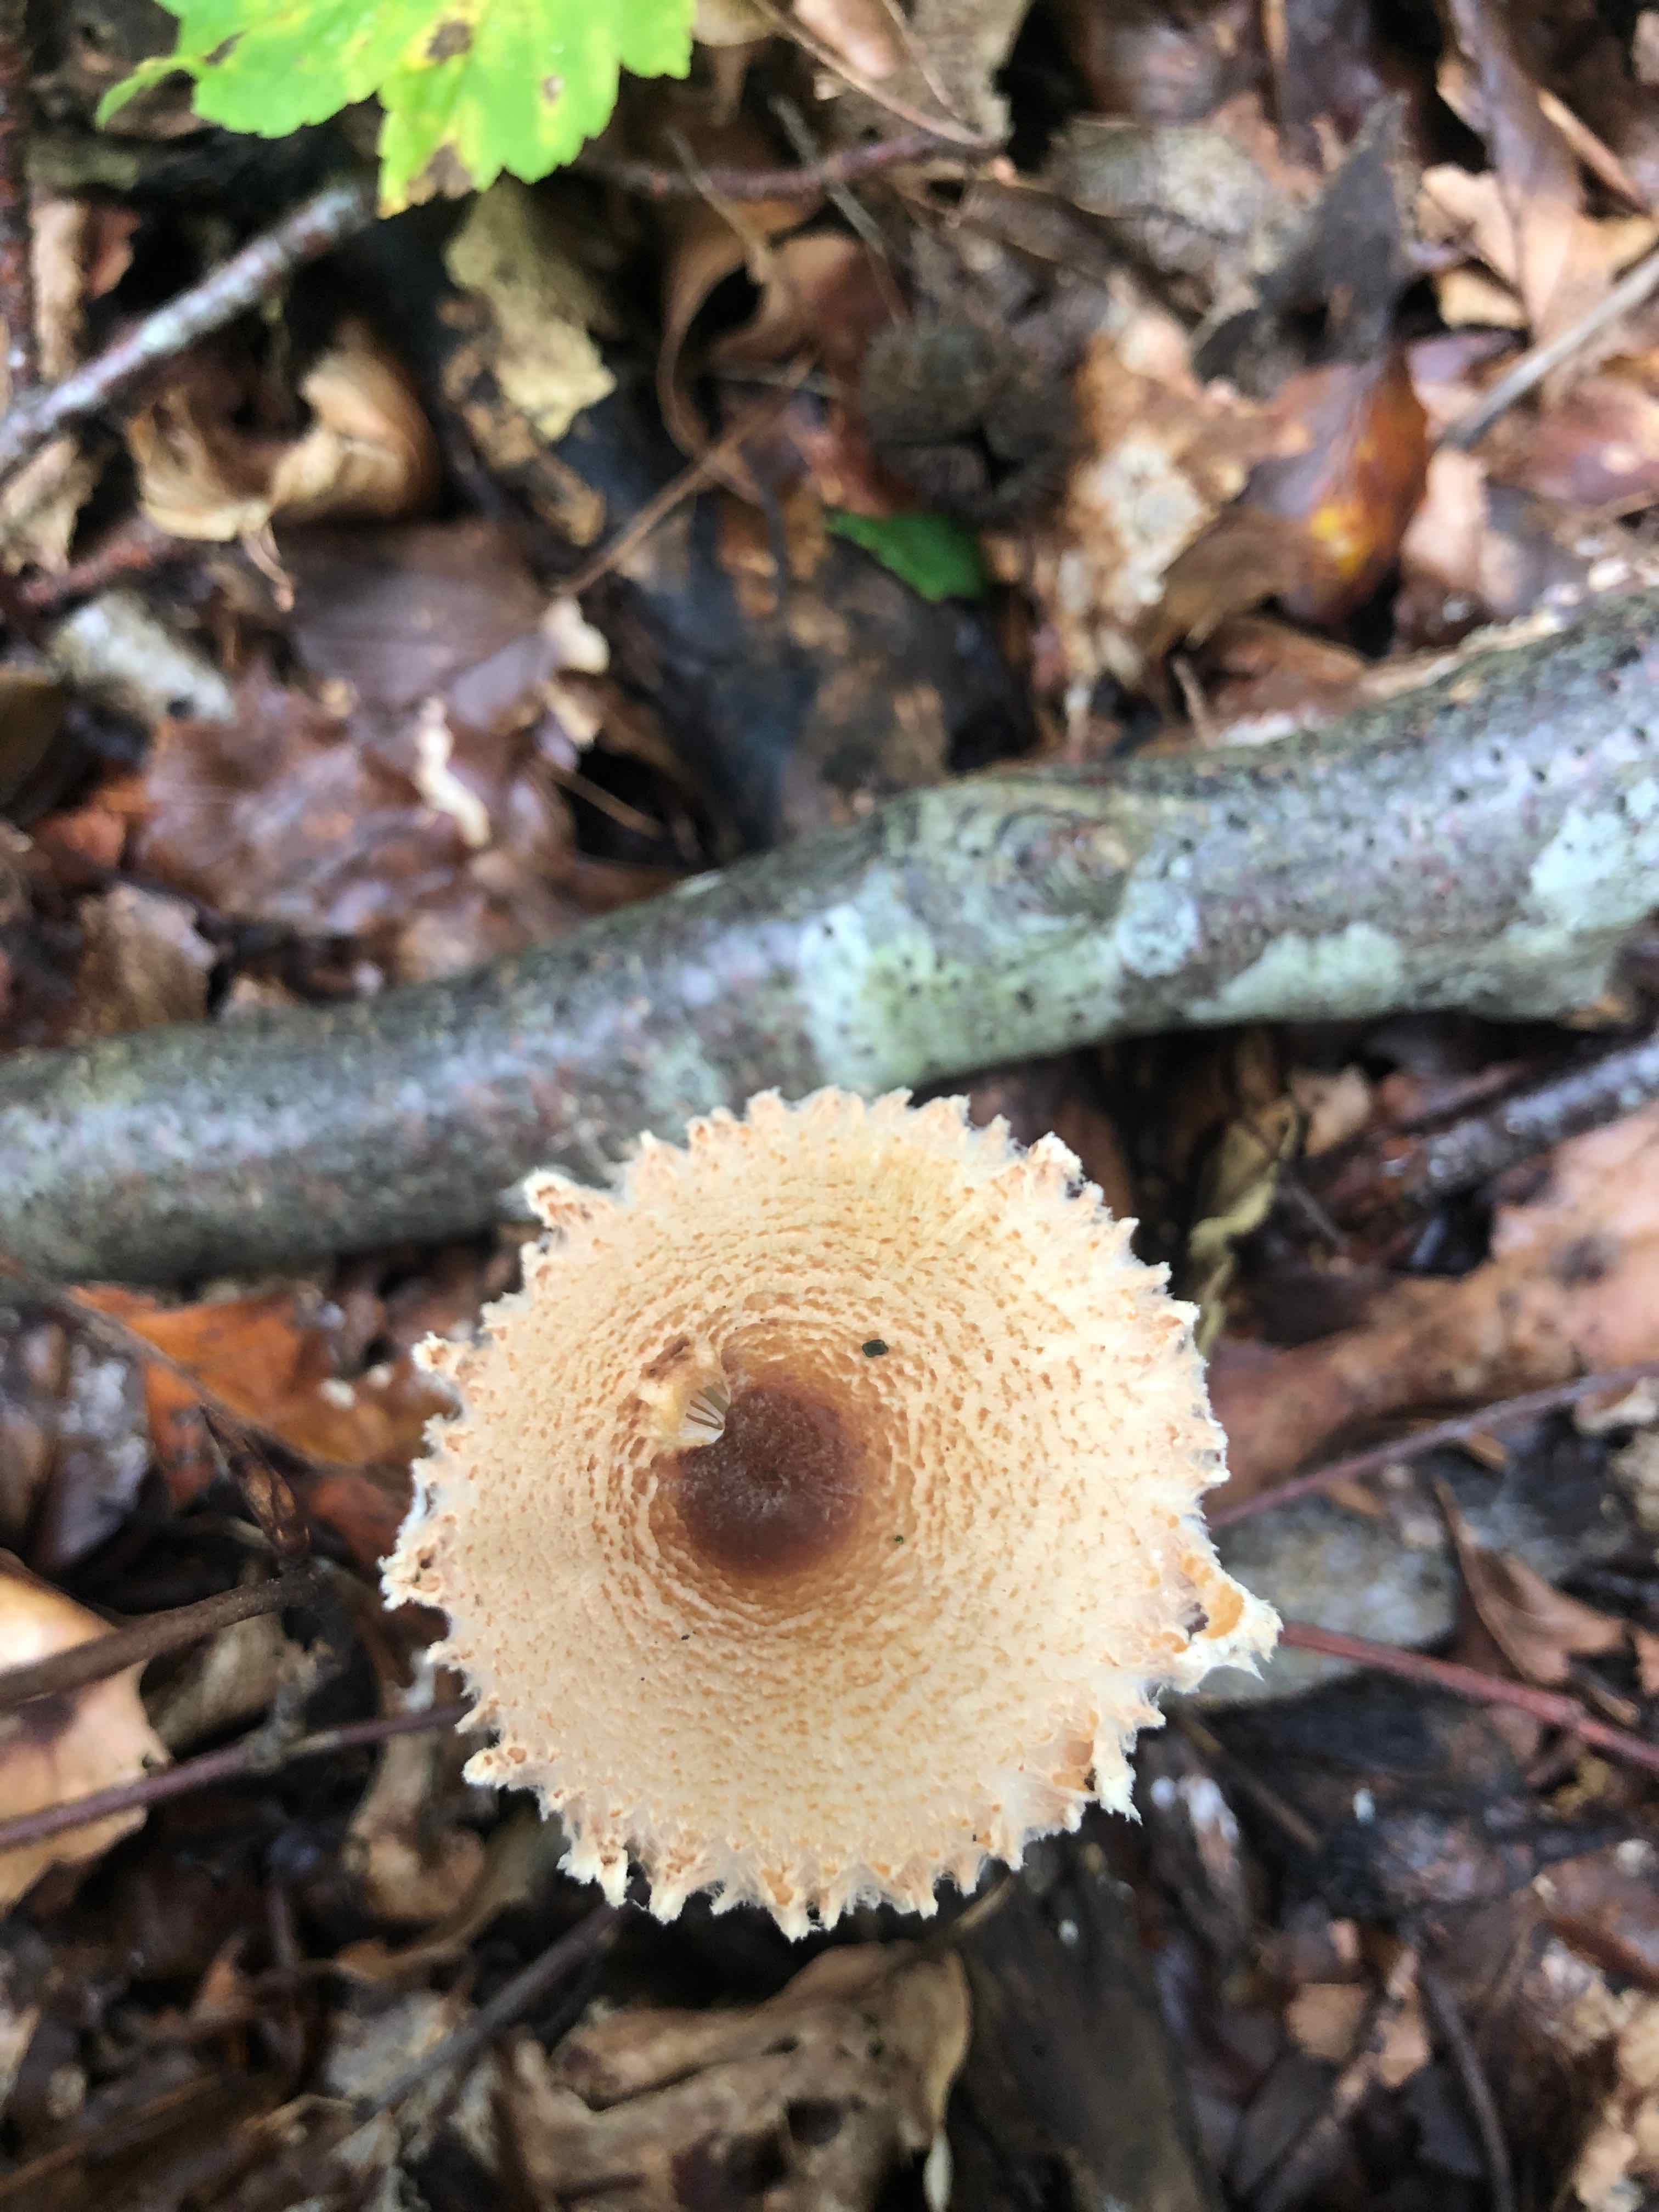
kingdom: Fungi
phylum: Basidiomycota
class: Agaricomycetes
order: Agaricales
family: Agaricaceae
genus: Lepiota
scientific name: Lepiota magnispora
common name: gulfnugget parasolhat
